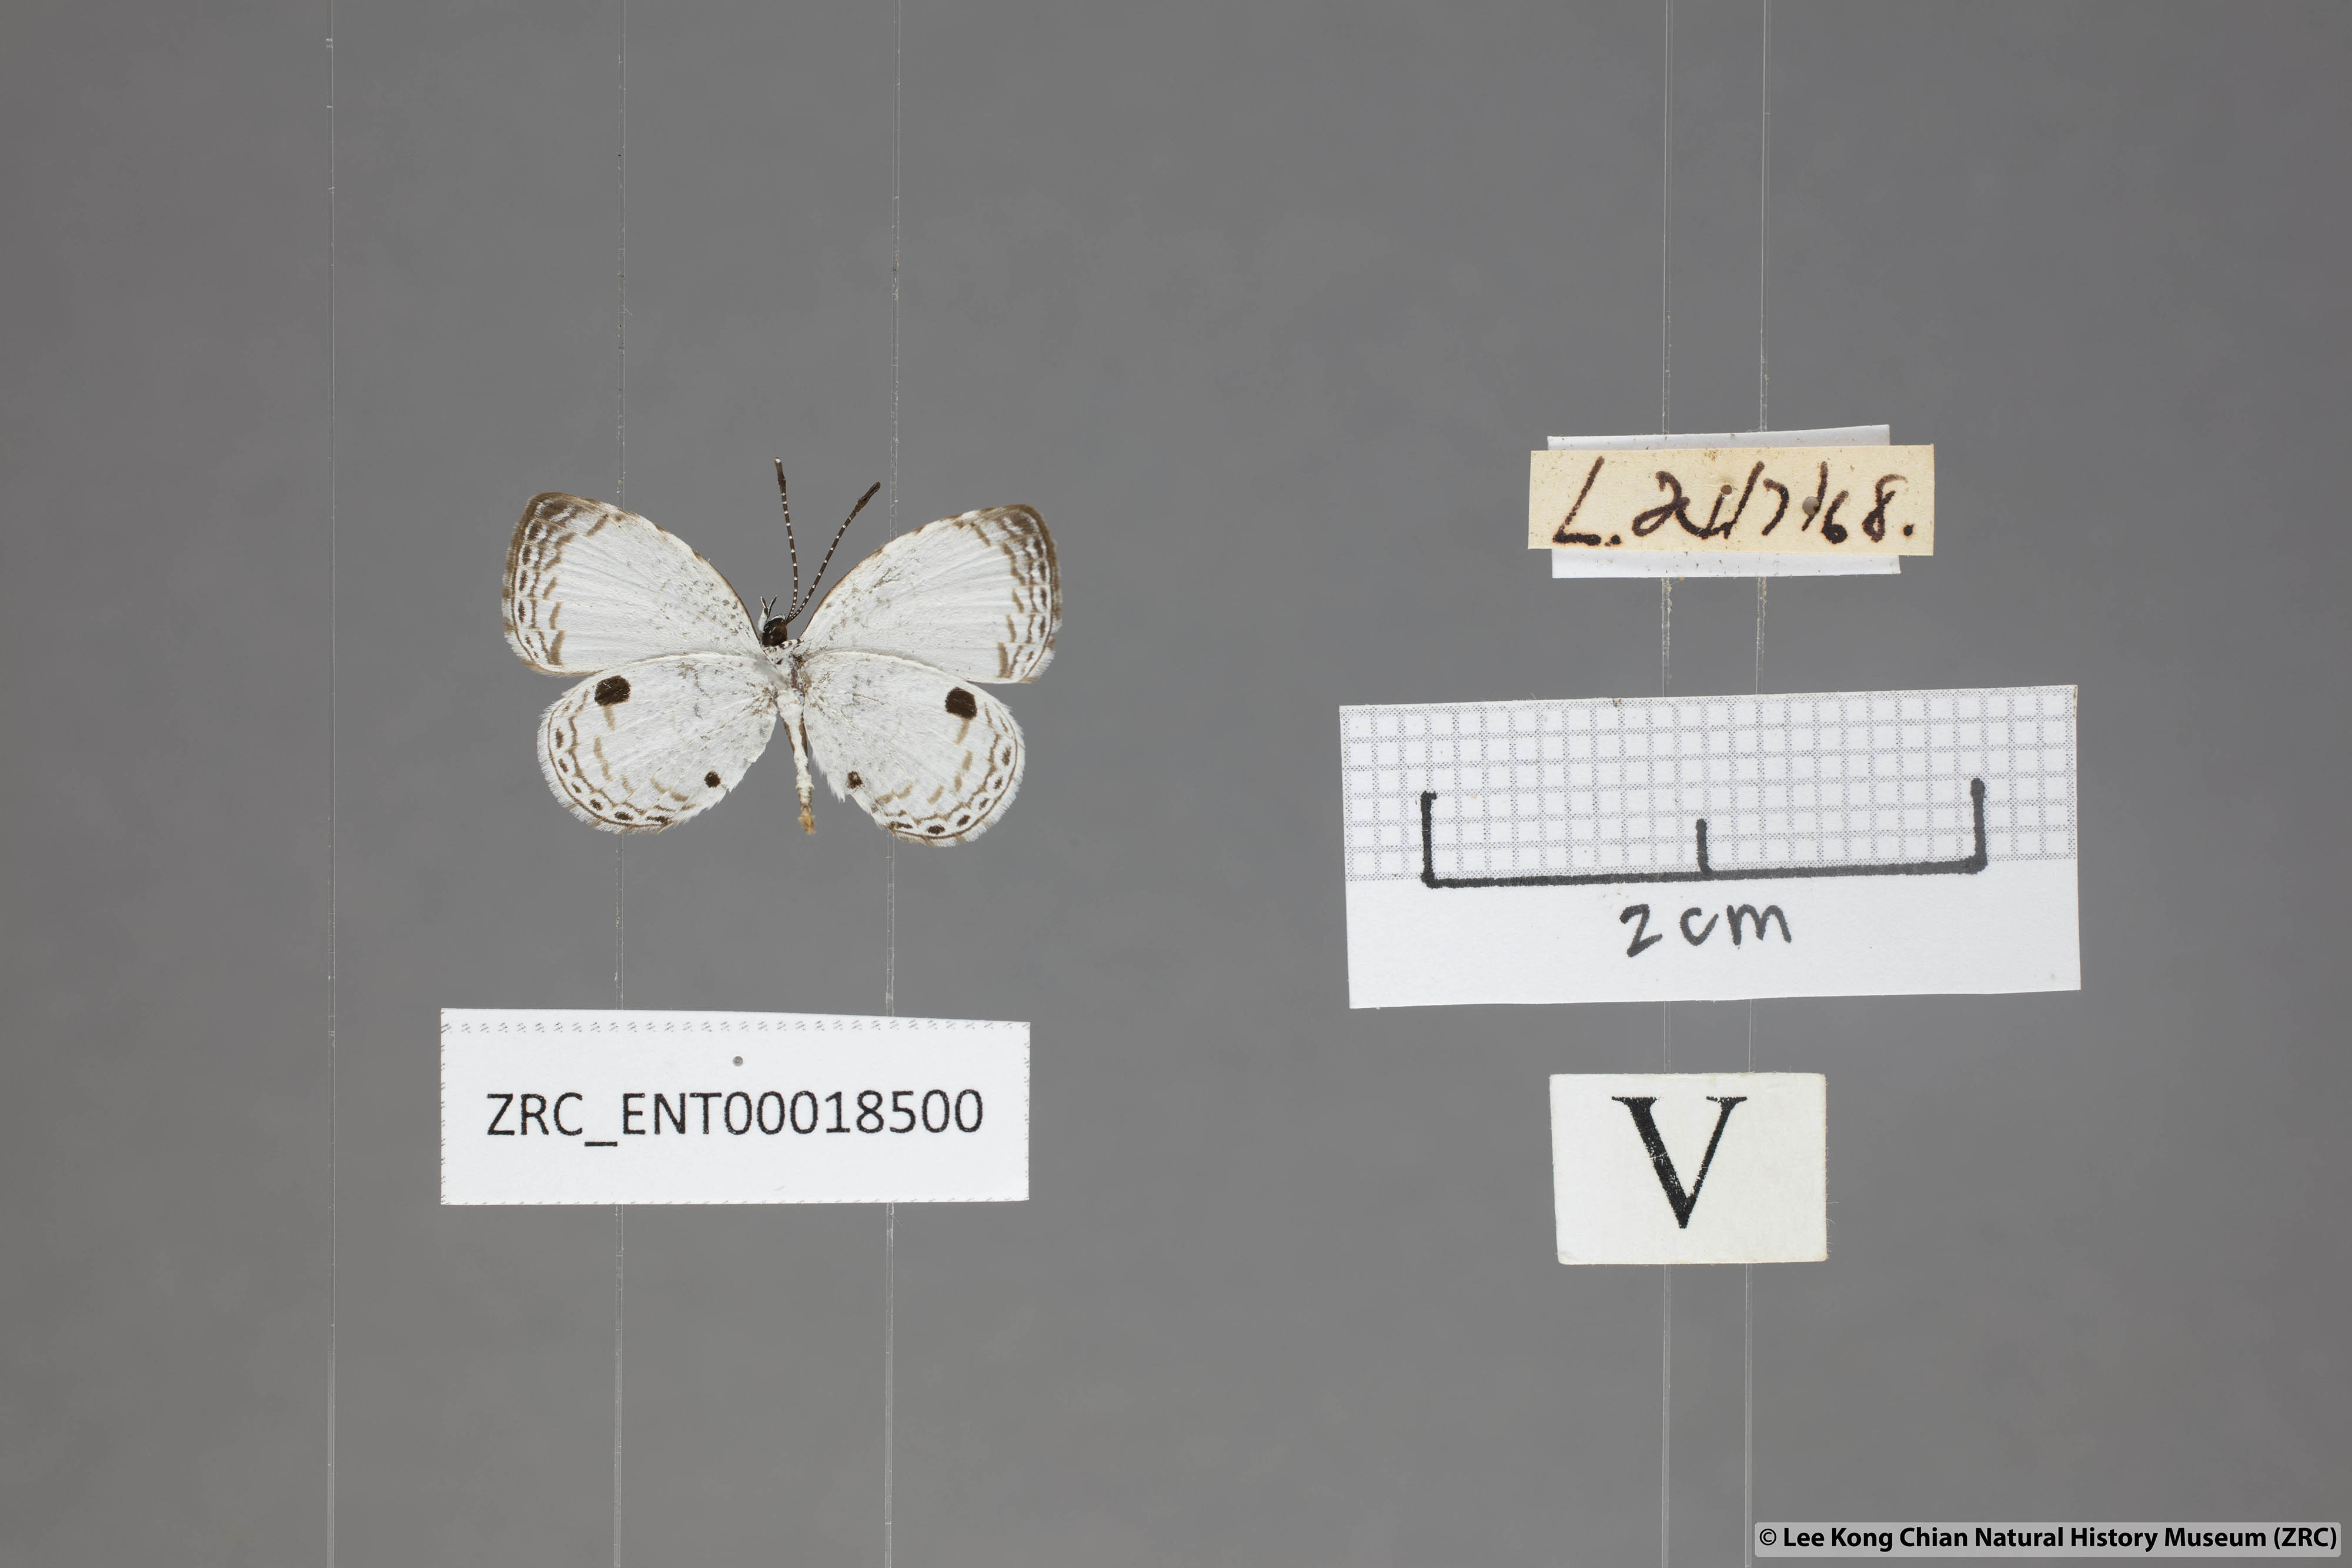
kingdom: Animalia
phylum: Arthropoda
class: Insecta
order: Lepidoptera
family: Lycaenidae
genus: Neopithecops
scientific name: Neopithecops zalmora
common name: Quaker
